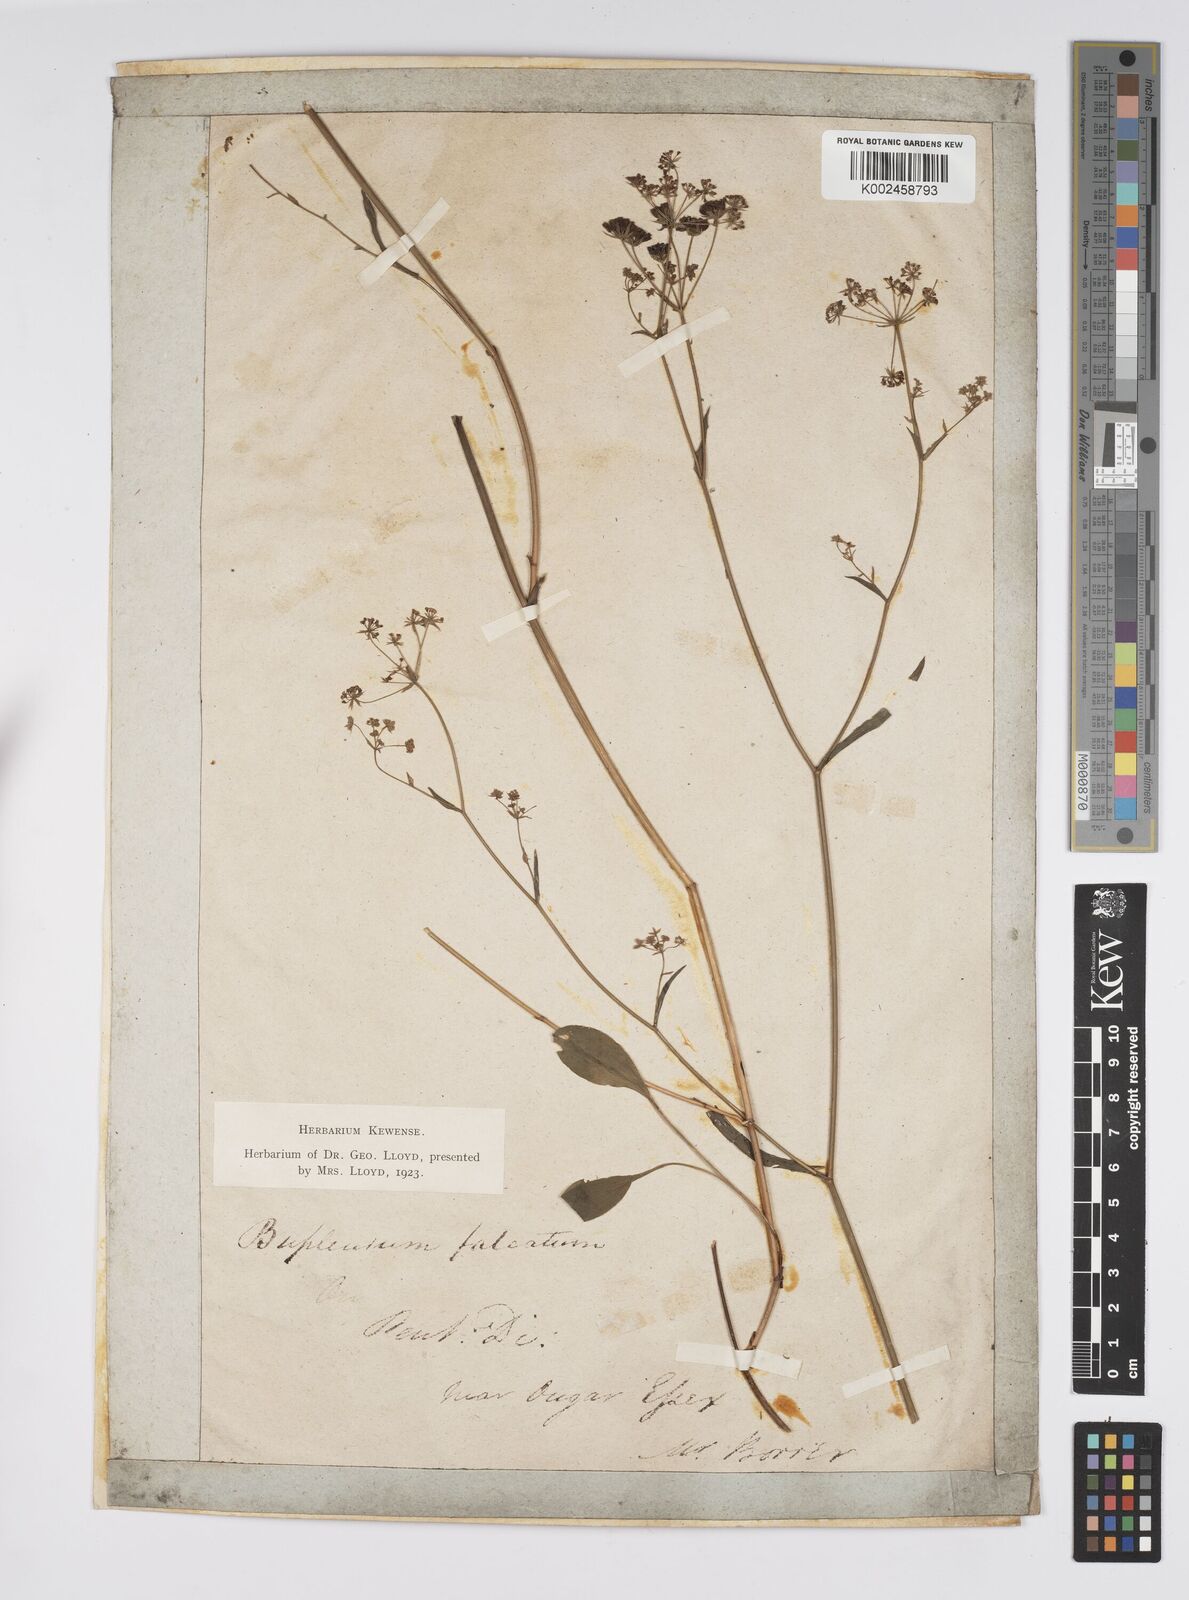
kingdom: Plantae
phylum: Tracheophyta
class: Magnoliopsida
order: Apiales
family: Apiaceae
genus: Bupleurum
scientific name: Bupleurum falcatum
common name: Sickle-leaved hare's-ear
